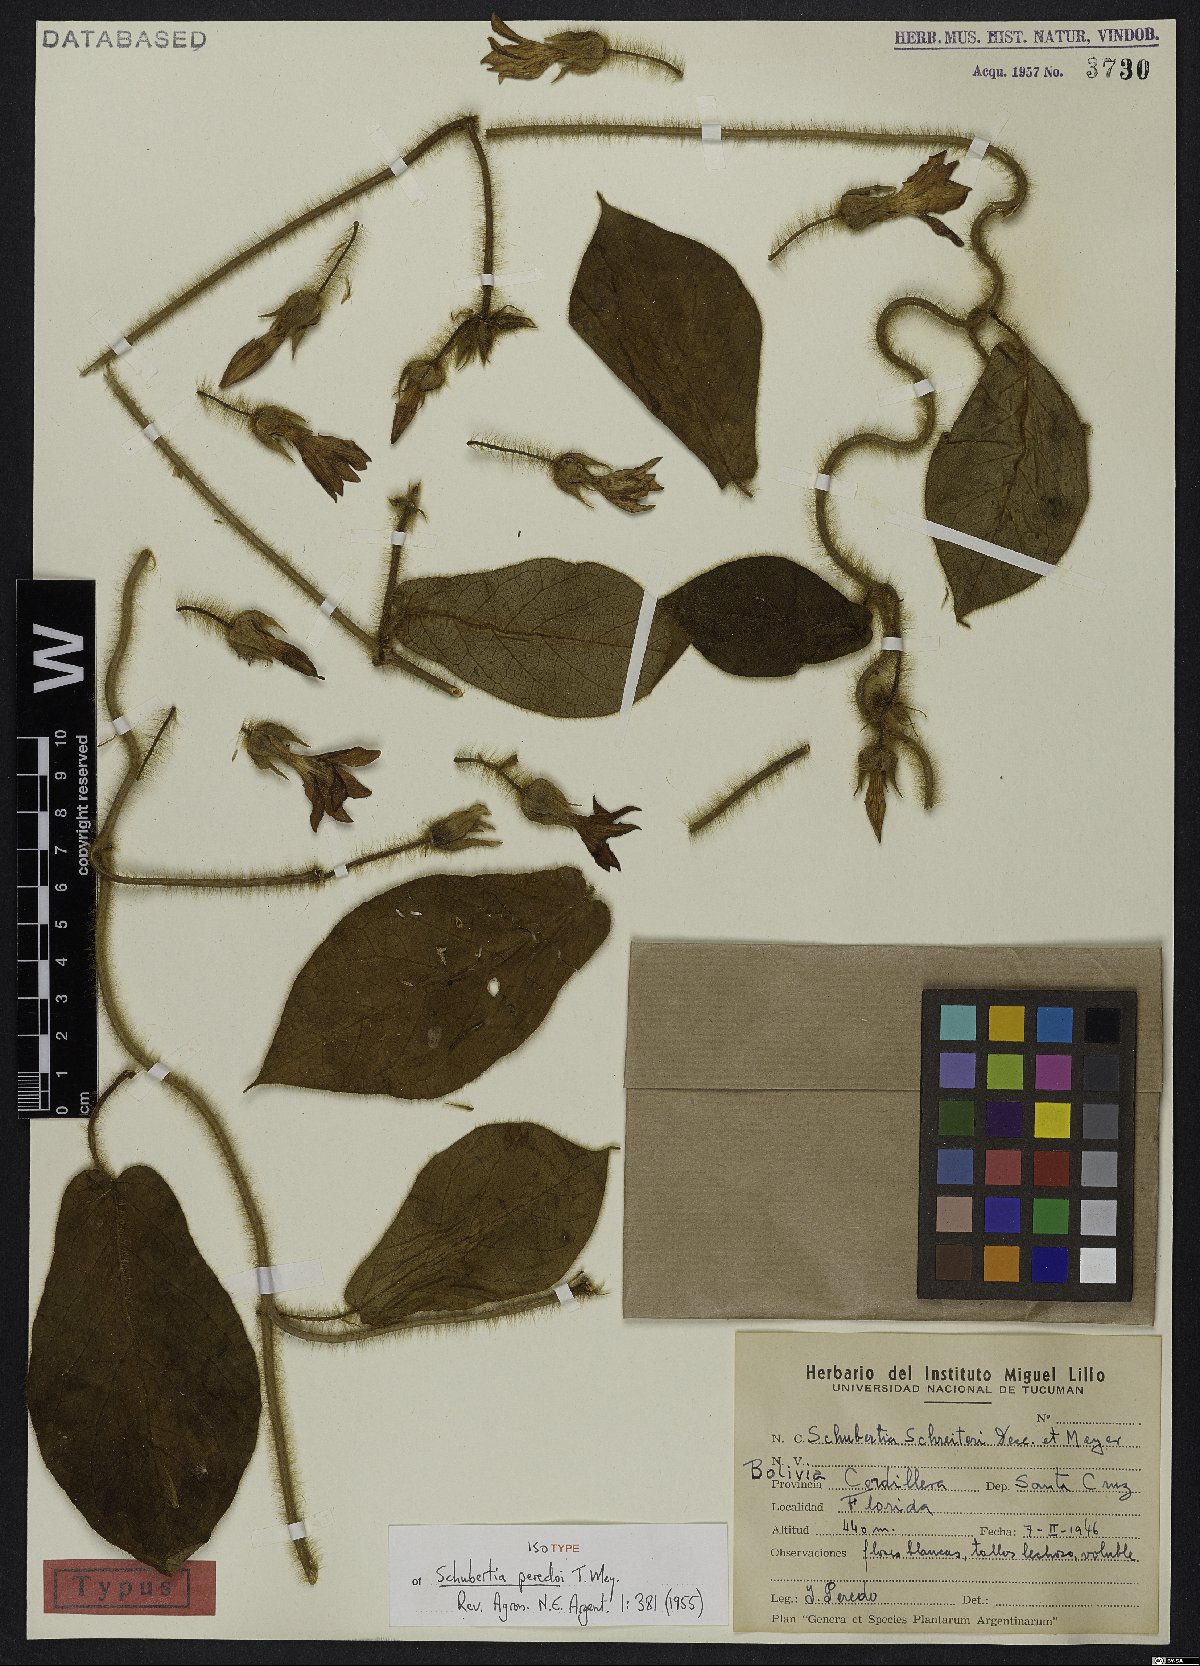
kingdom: Plantae
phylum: Tracheophyta
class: Magnoliopsida
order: Gentianales
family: Apocynaceae
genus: Macroscepis
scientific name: Macroscepis schreiteri
